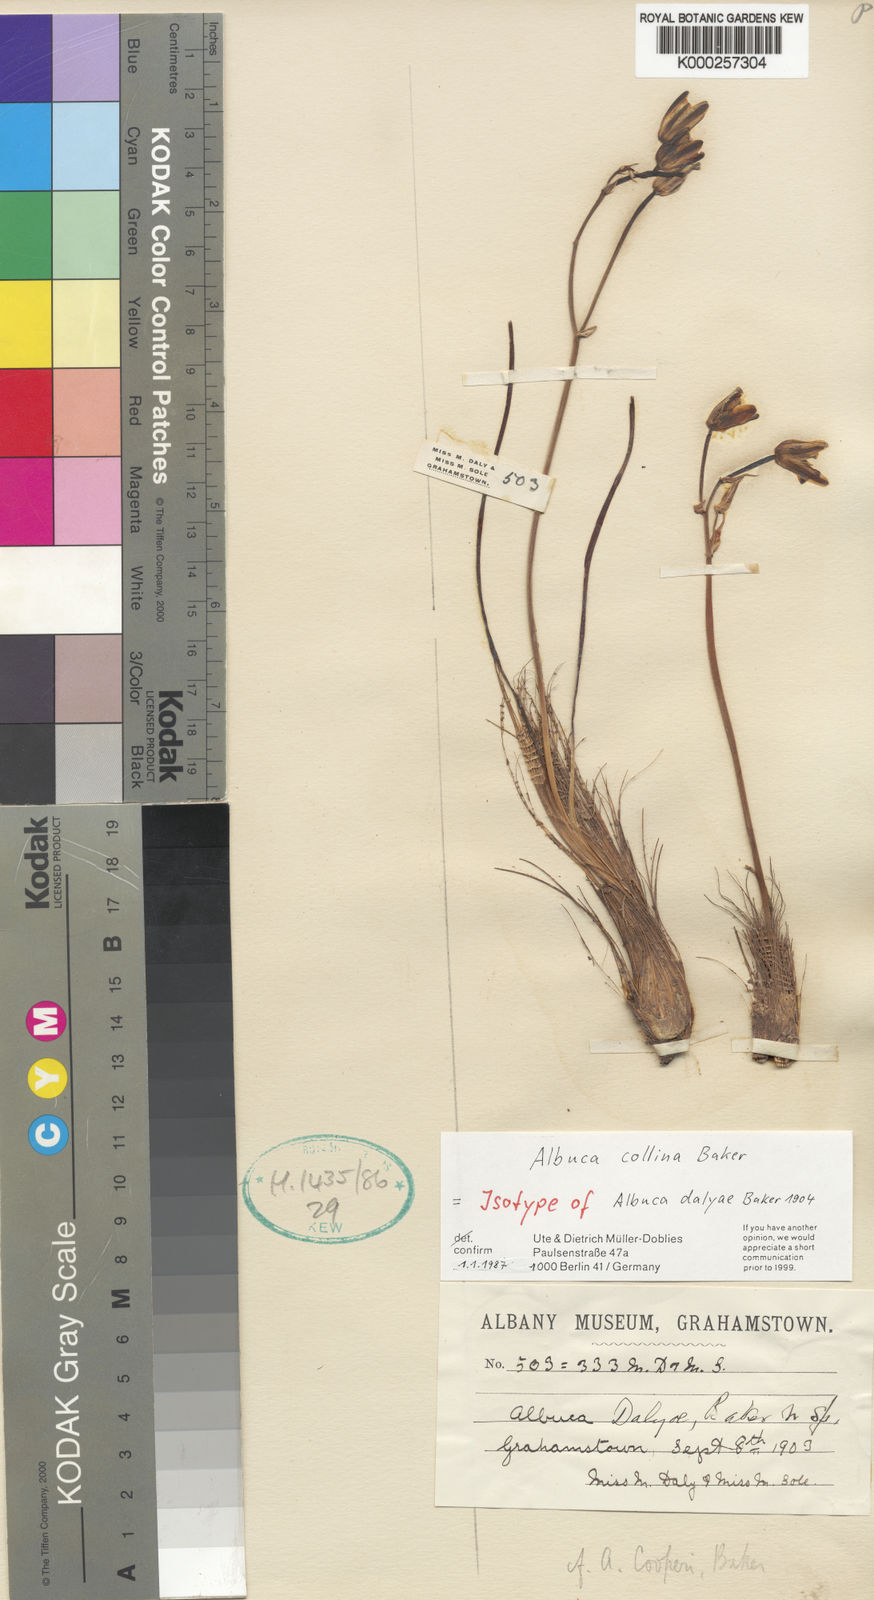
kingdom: Plantae
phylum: Tracheophyta
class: Liliopsida
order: Asparagales
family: Asparagaceae
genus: Albuca
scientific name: Albuca collina
